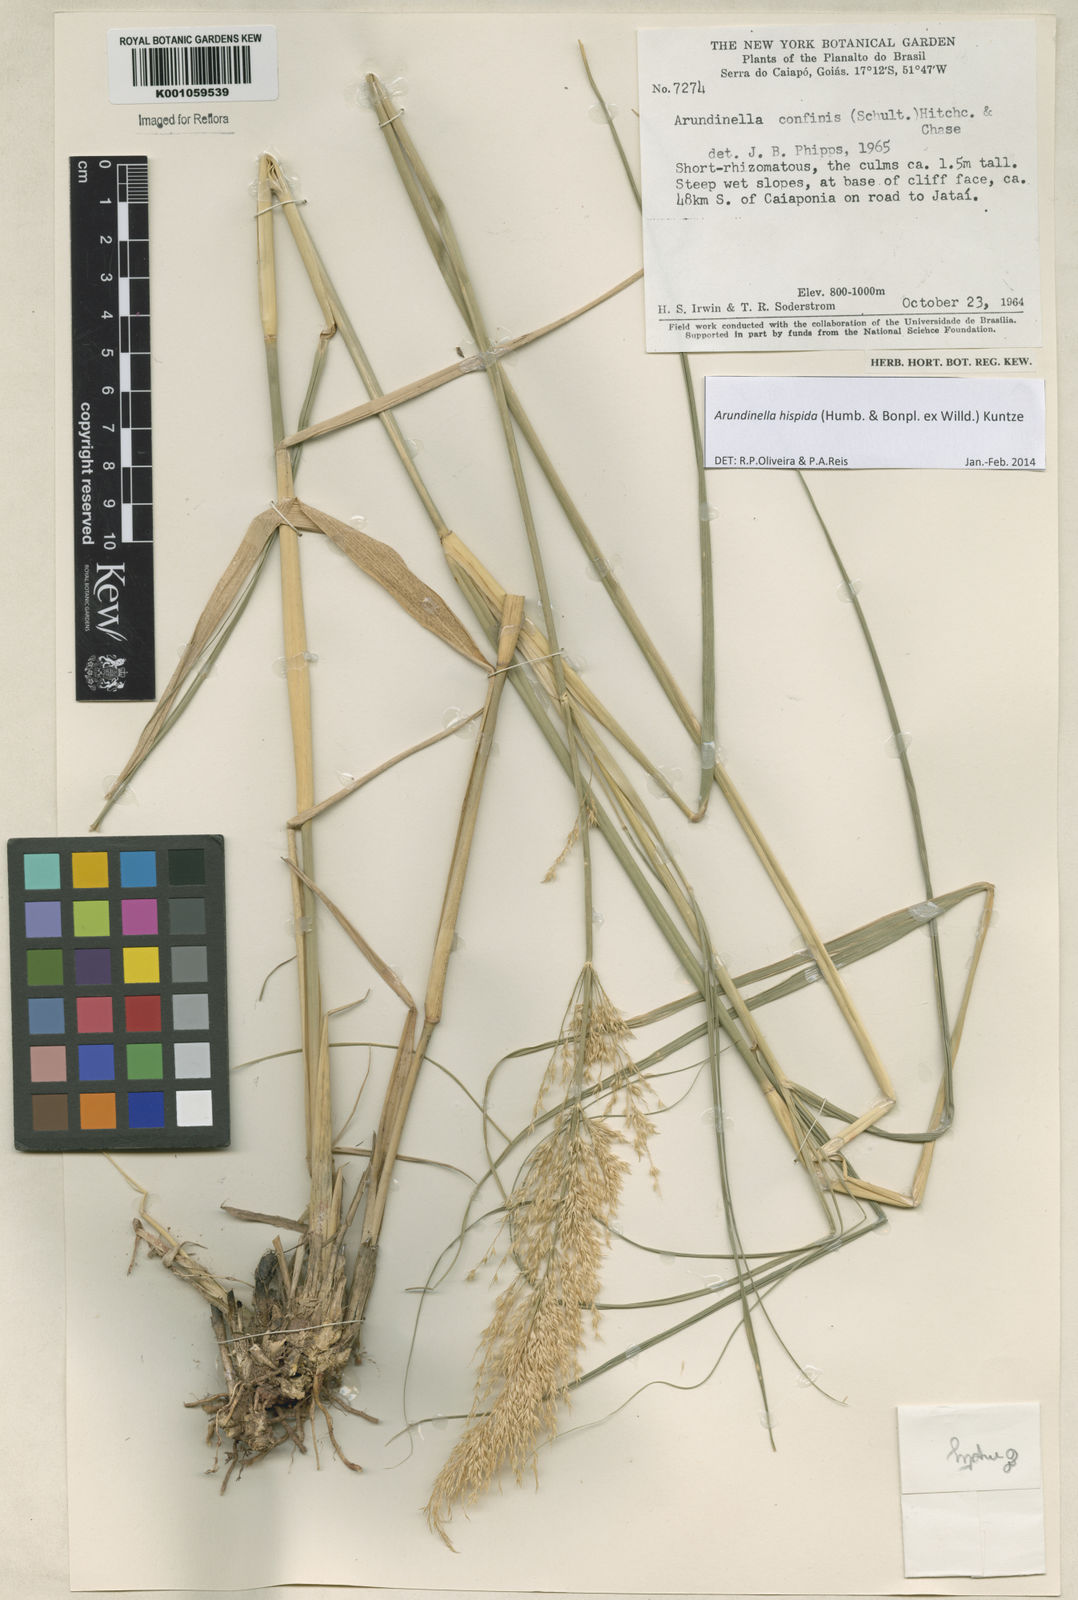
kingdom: Plantae
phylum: Tracheophyta
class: Liliopsida
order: Poales
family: Poaceae
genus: Arundinella
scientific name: Arundinella hispida
